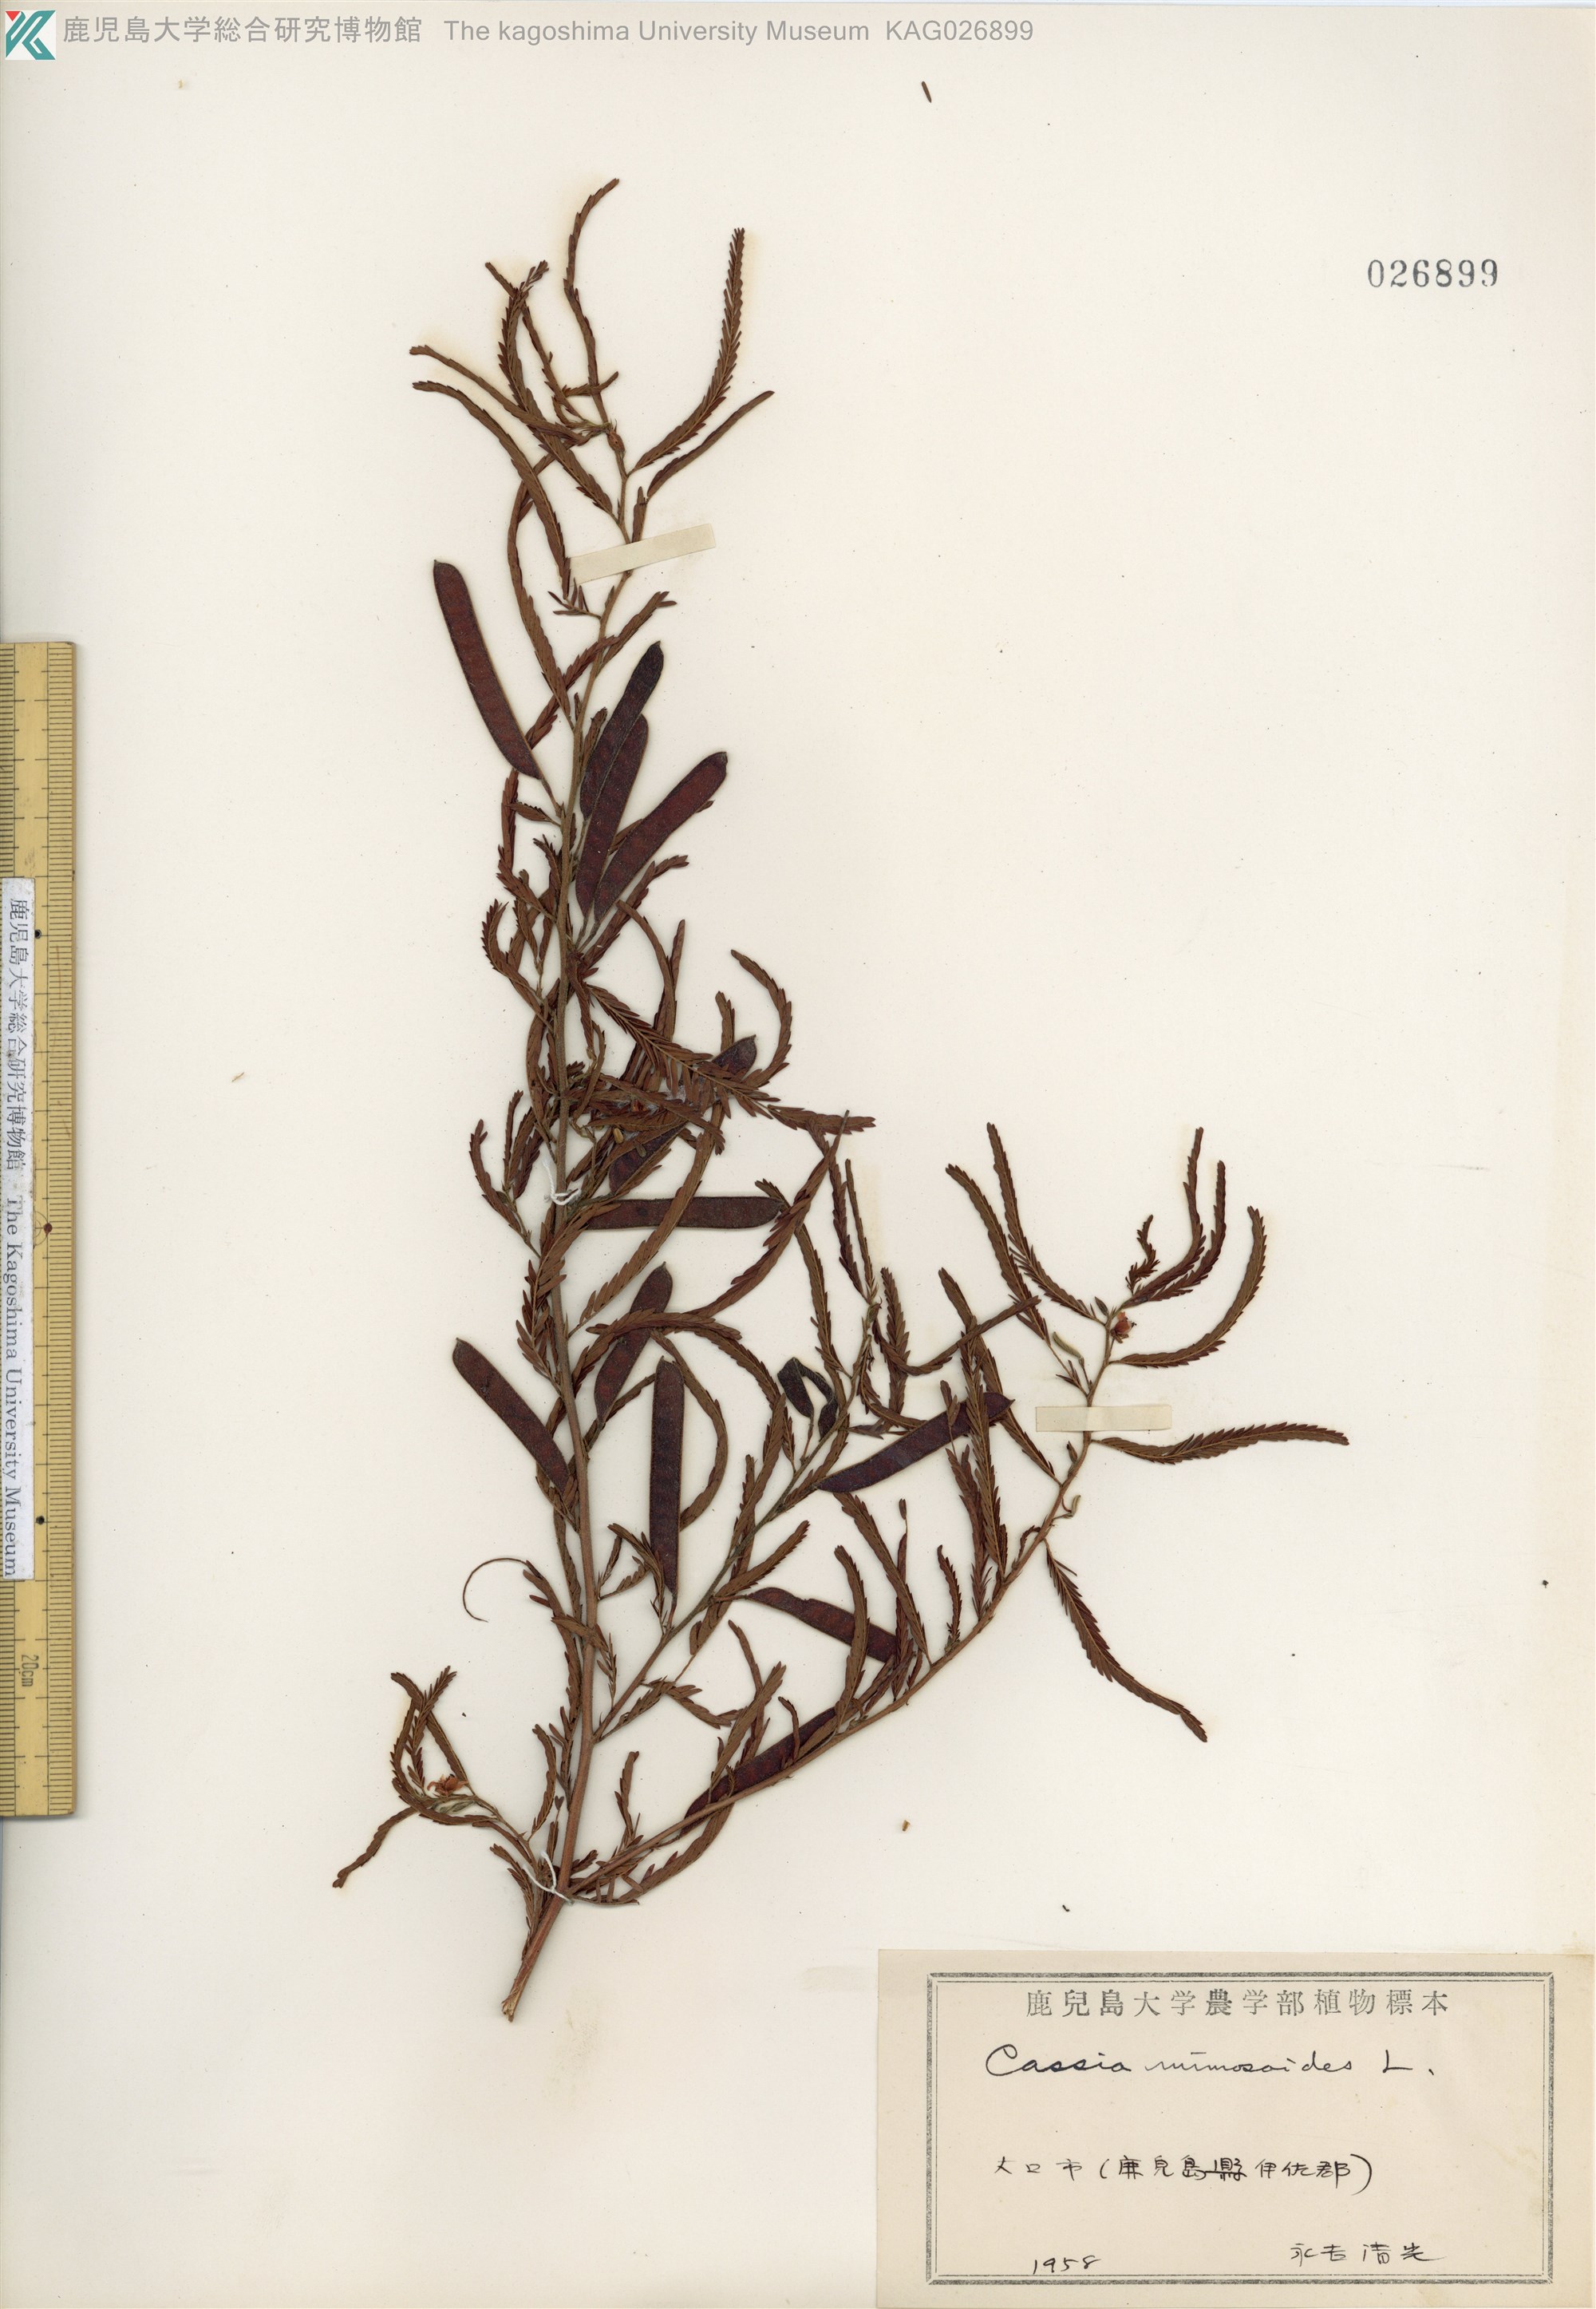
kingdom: Plantae
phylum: Tracheophyta
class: Magnoliopsida
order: Fabales
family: Fabaceae
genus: Chamaecrista
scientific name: Chamaecrista nomame
